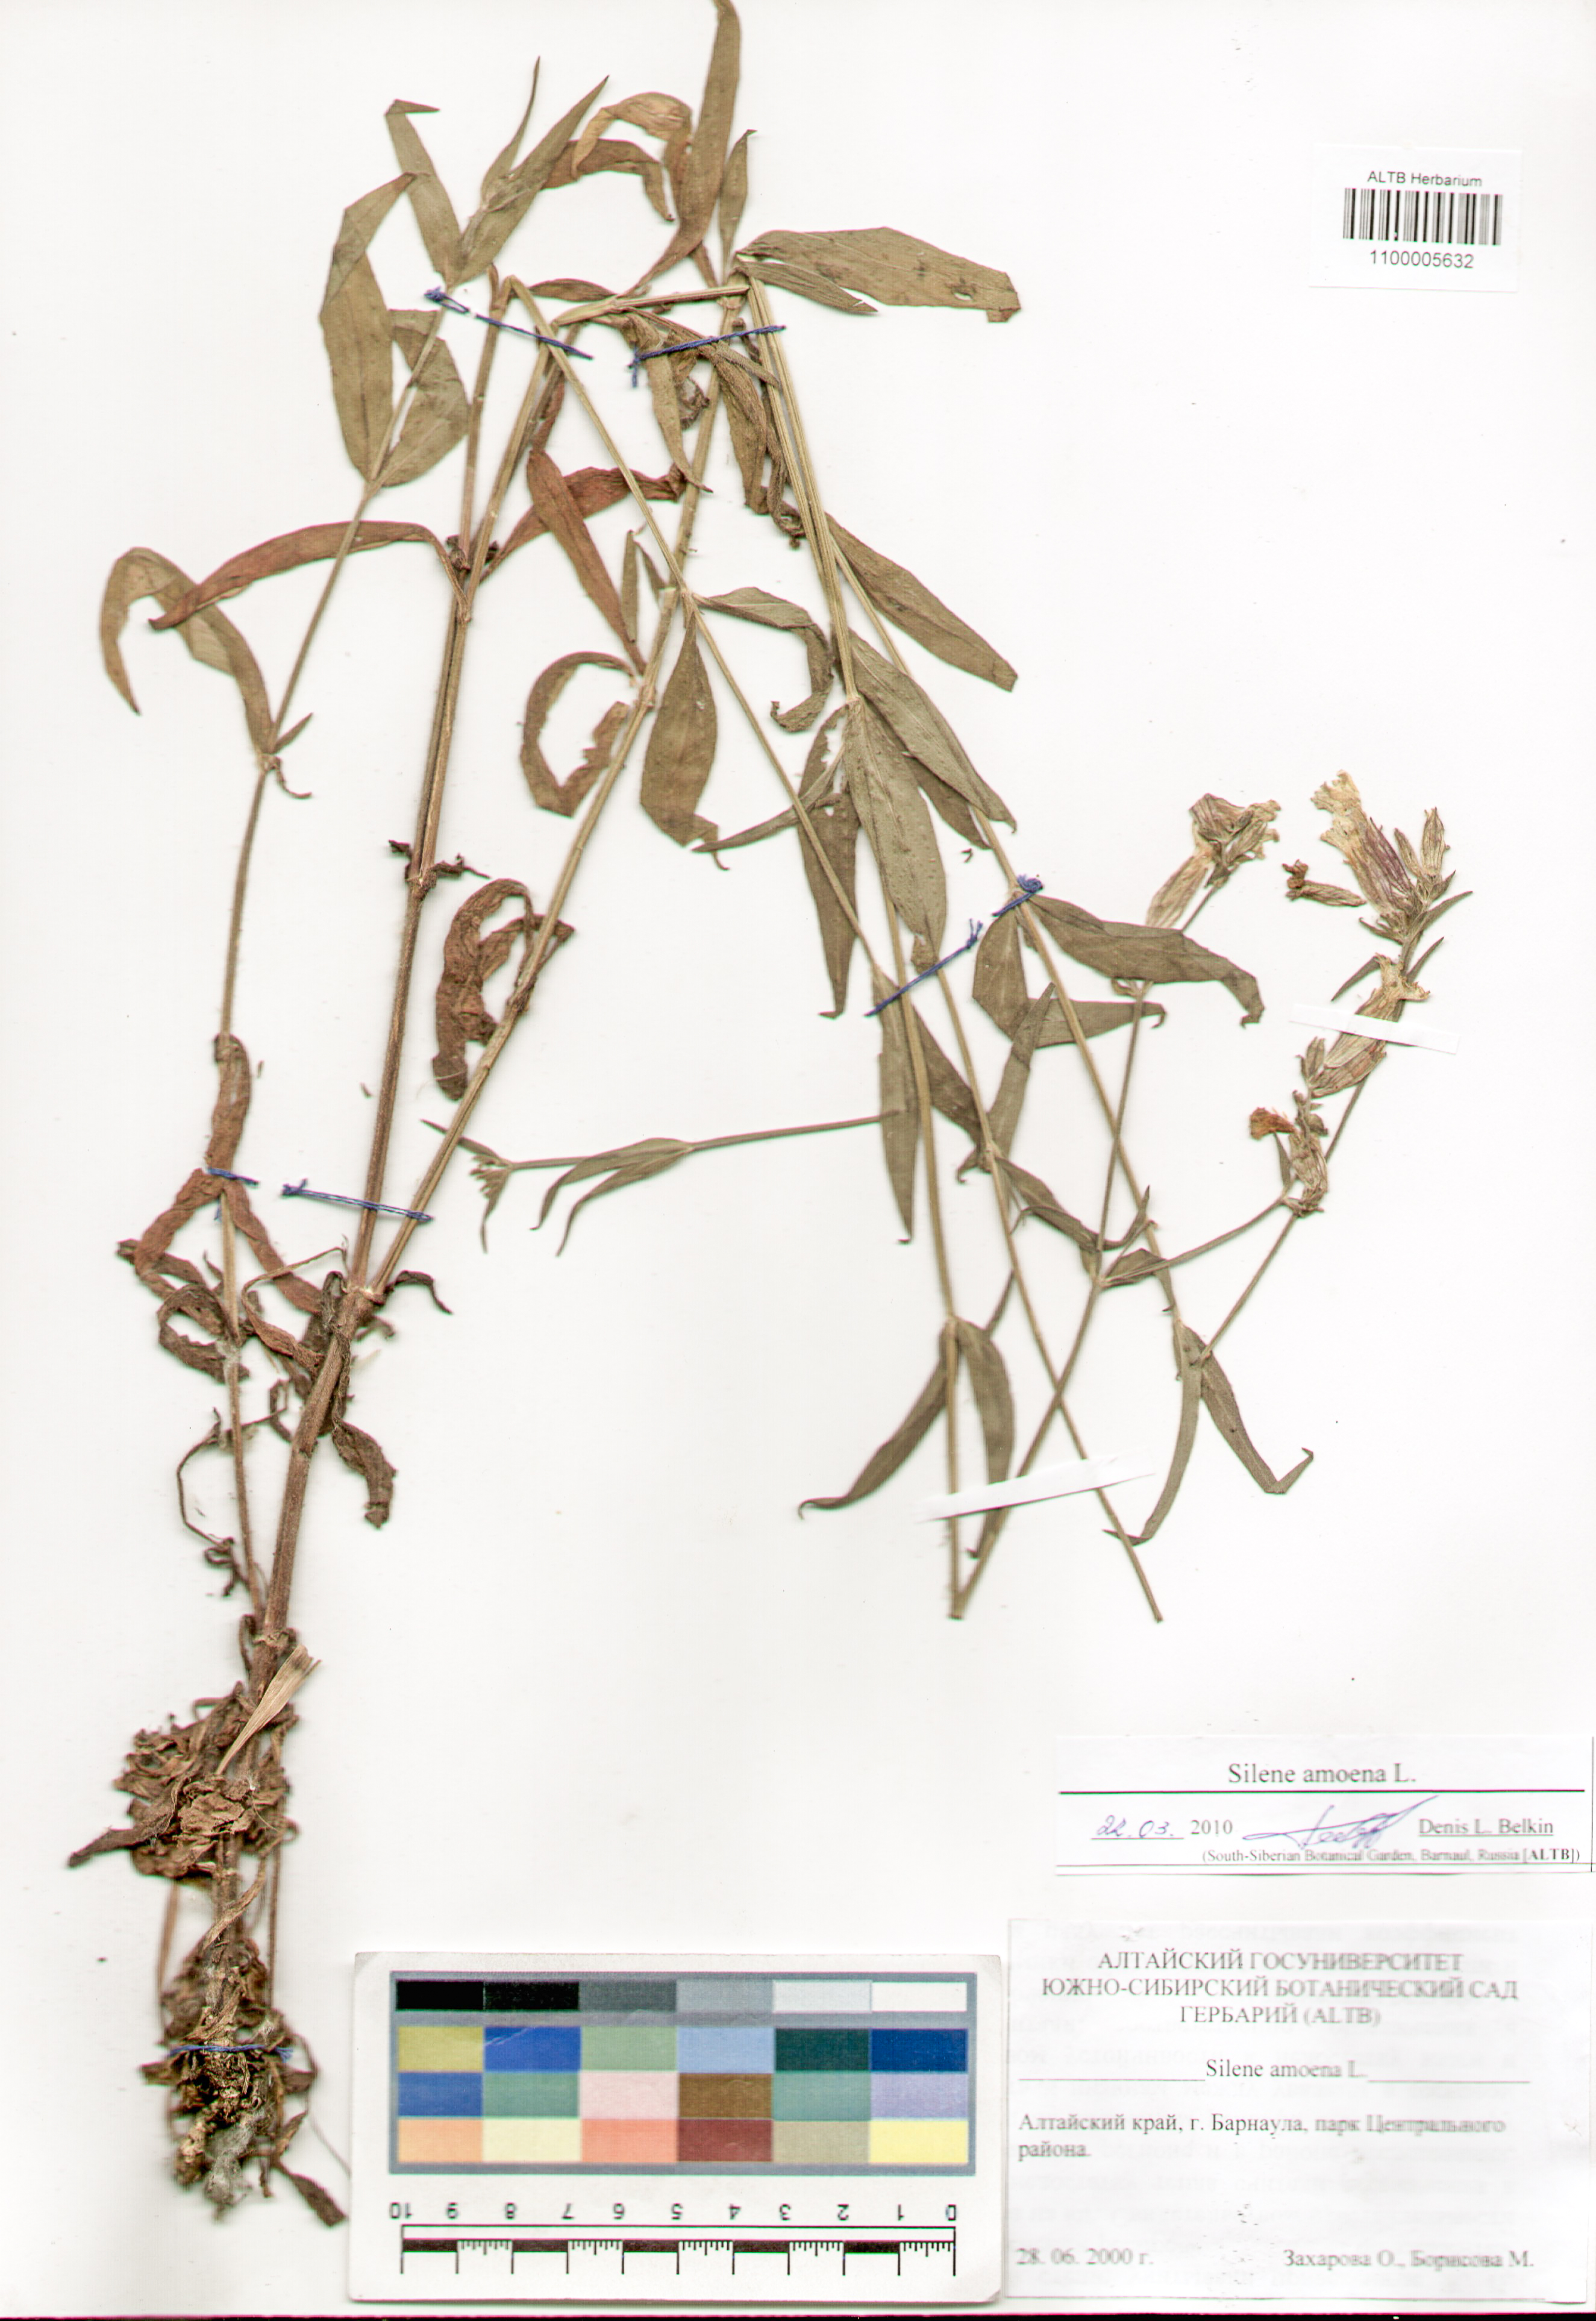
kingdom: Plantae
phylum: Tracheophyta
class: Magnoliopsida
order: Caryophyllales
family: Caryophyllaceae
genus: Silene
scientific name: Silene amoena
